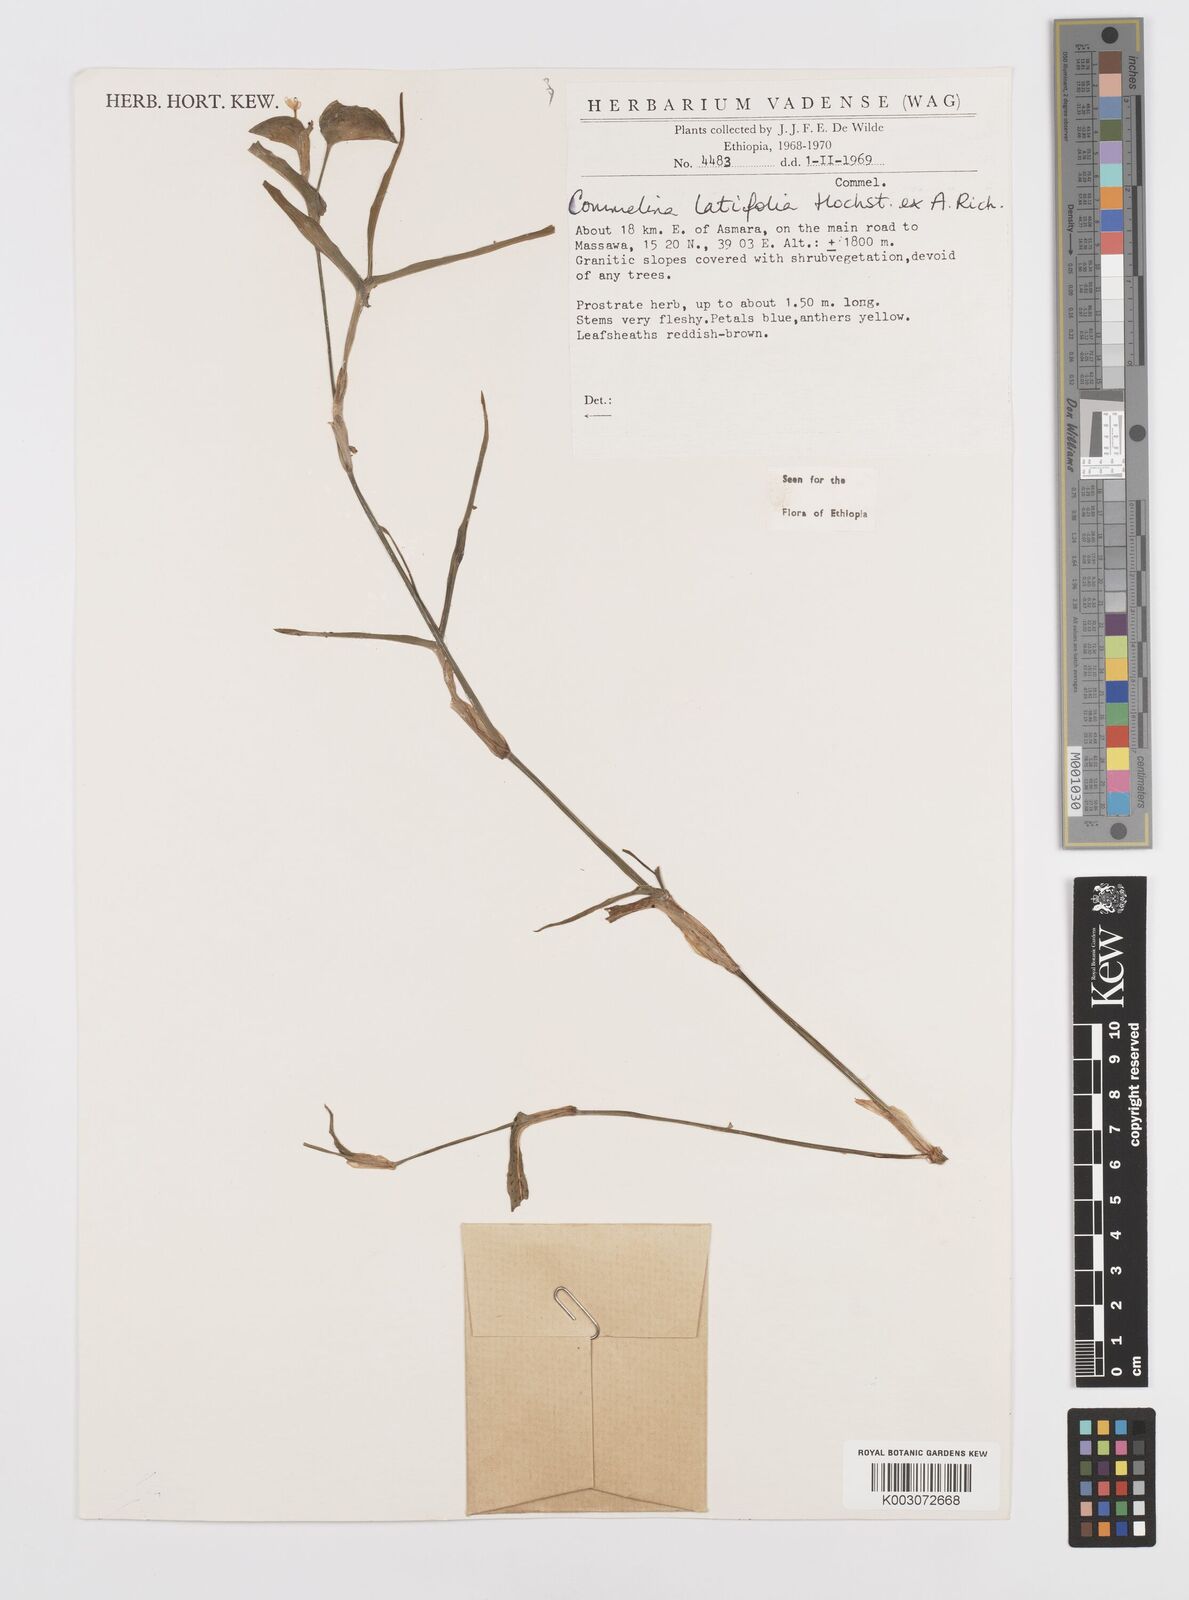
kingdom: Plantae
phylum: Tracheophyta
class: Liliopsida
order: Commelinales
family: Commelinaceae
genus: Commelina
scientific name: Commelina imberbis
